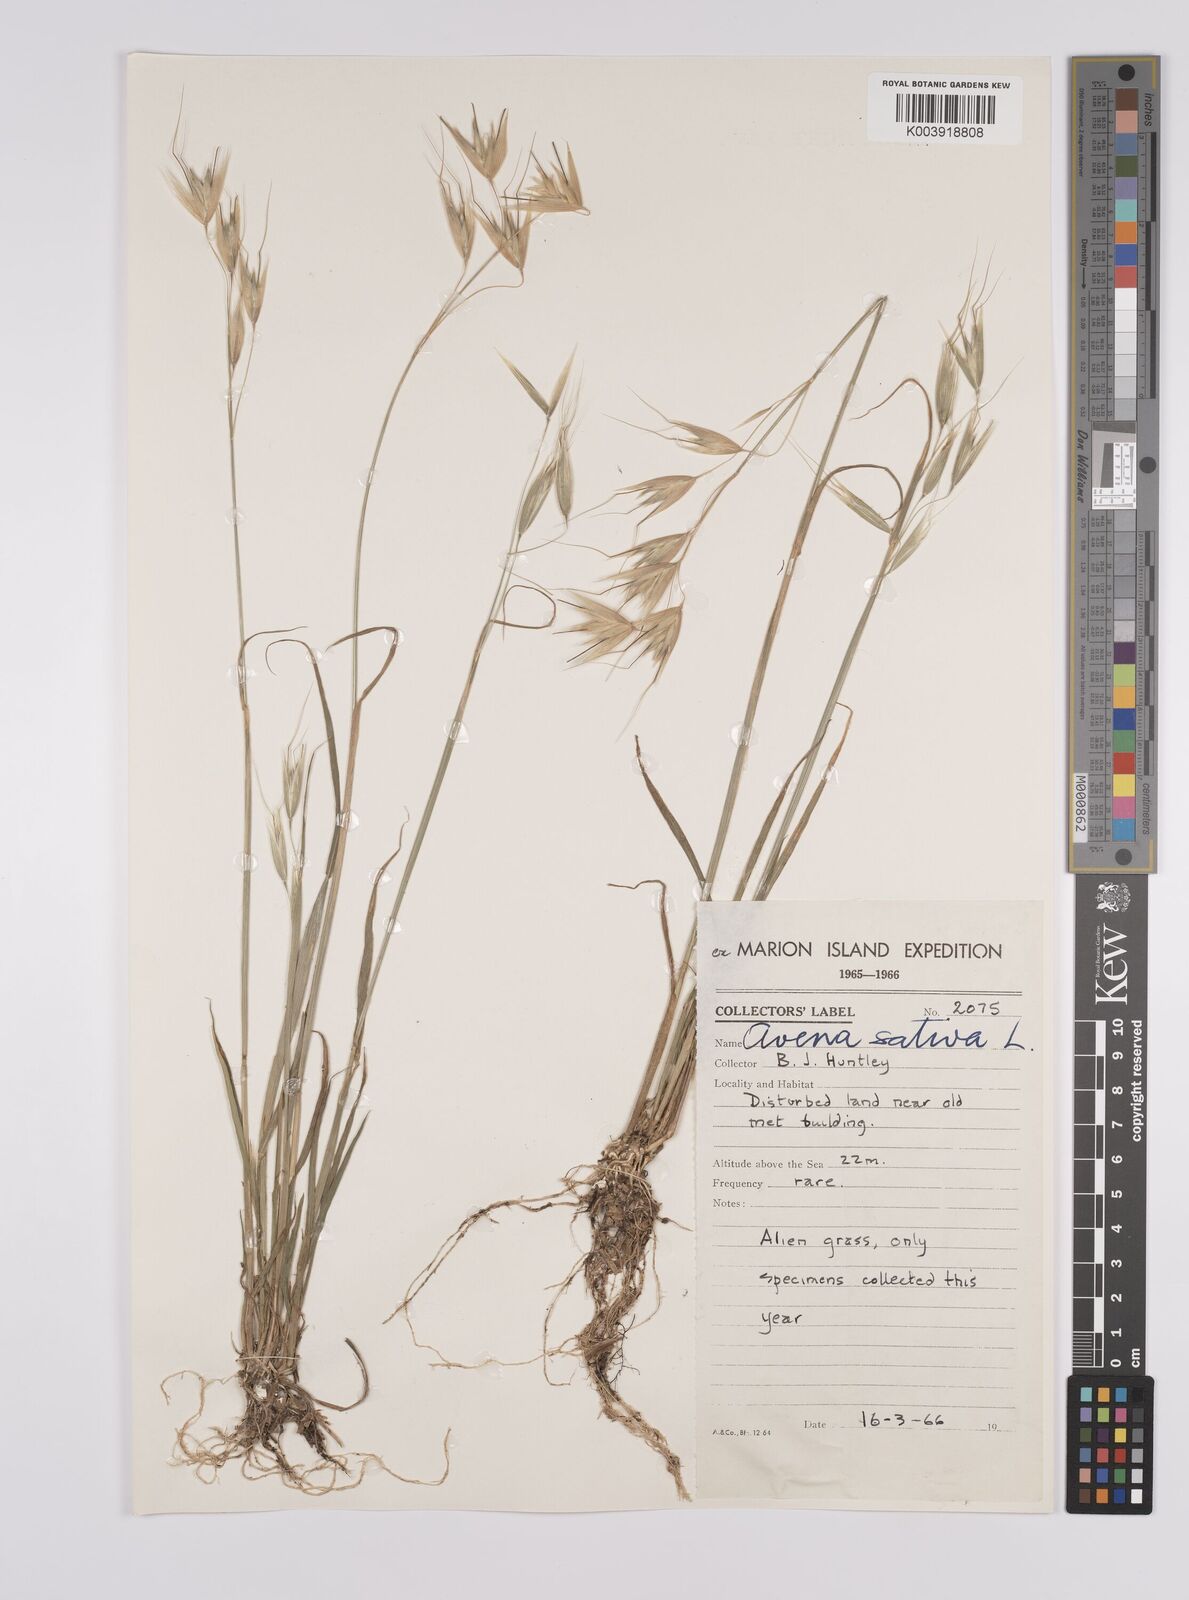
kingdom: Plantae
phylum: Tracheophyta
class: Liliopsida
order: Poales
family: Poaceae
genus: Avena
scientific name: Avena sativa
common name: Oat
